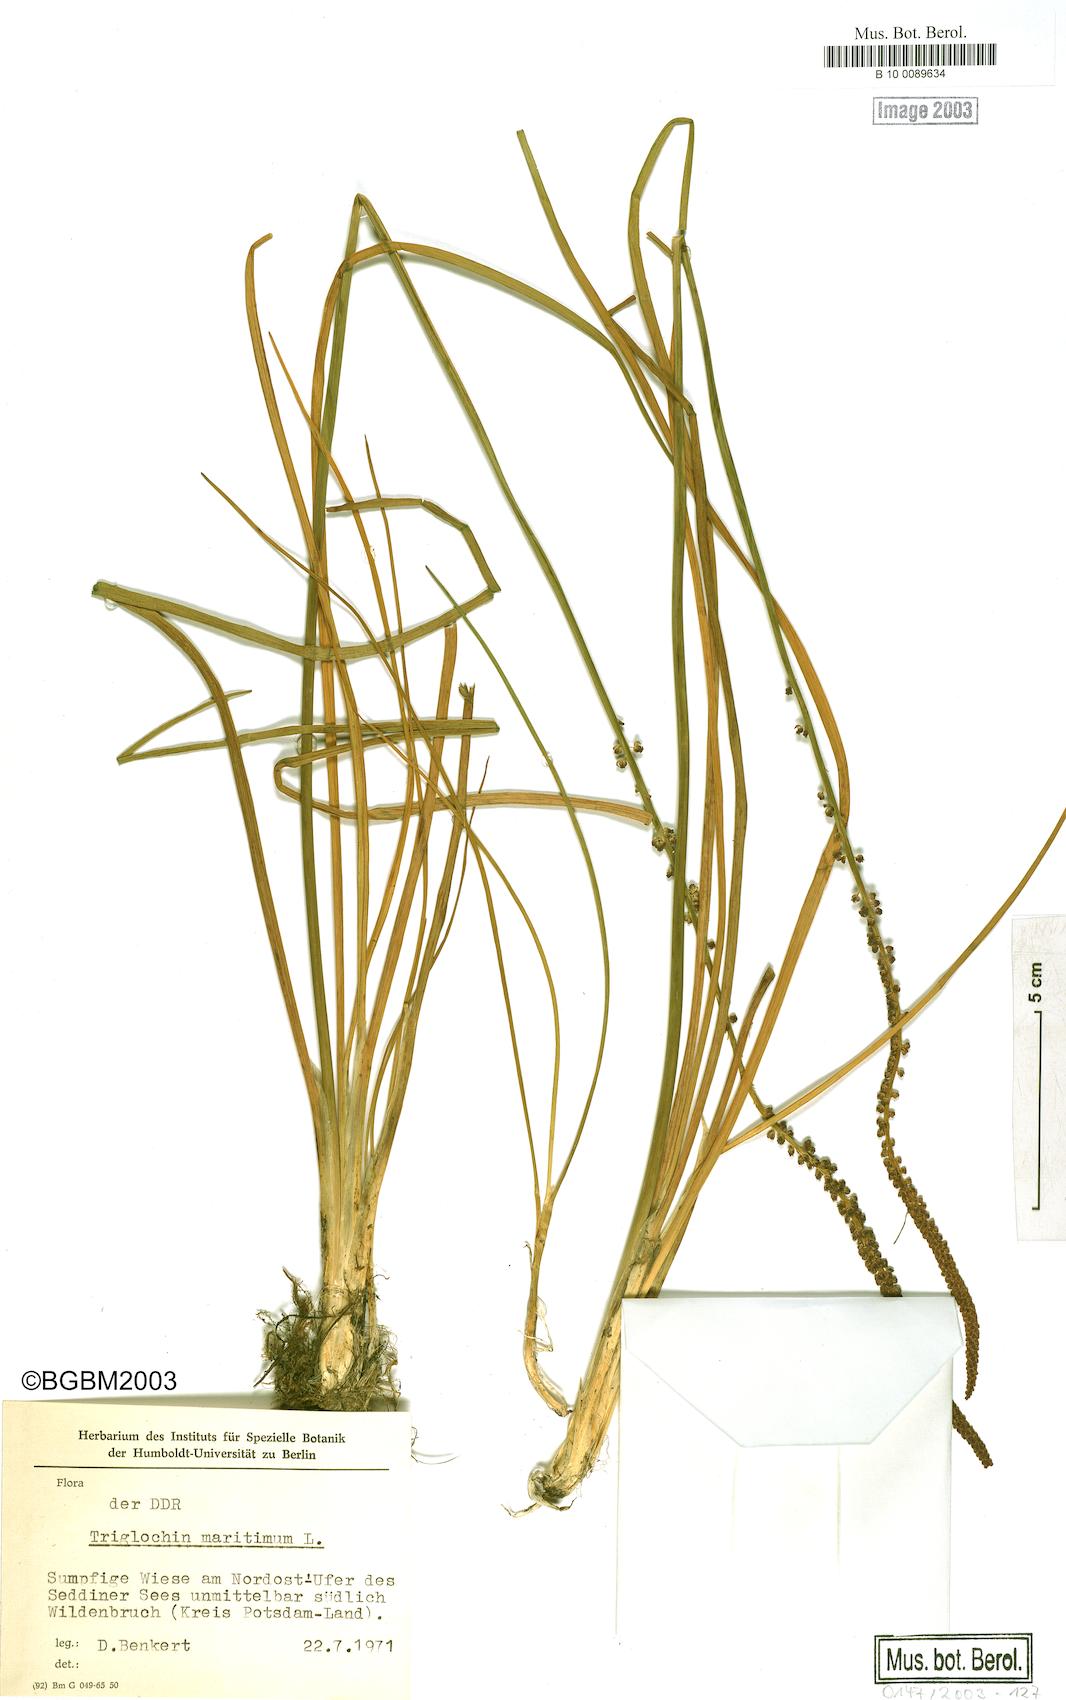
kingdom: Plantae
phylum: Tracheophyta
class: Liliopsida
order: Alismatales
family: Juncaginaceae
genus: Triglochin
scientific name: Triglochin maritima
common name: Sea arrowgrass
